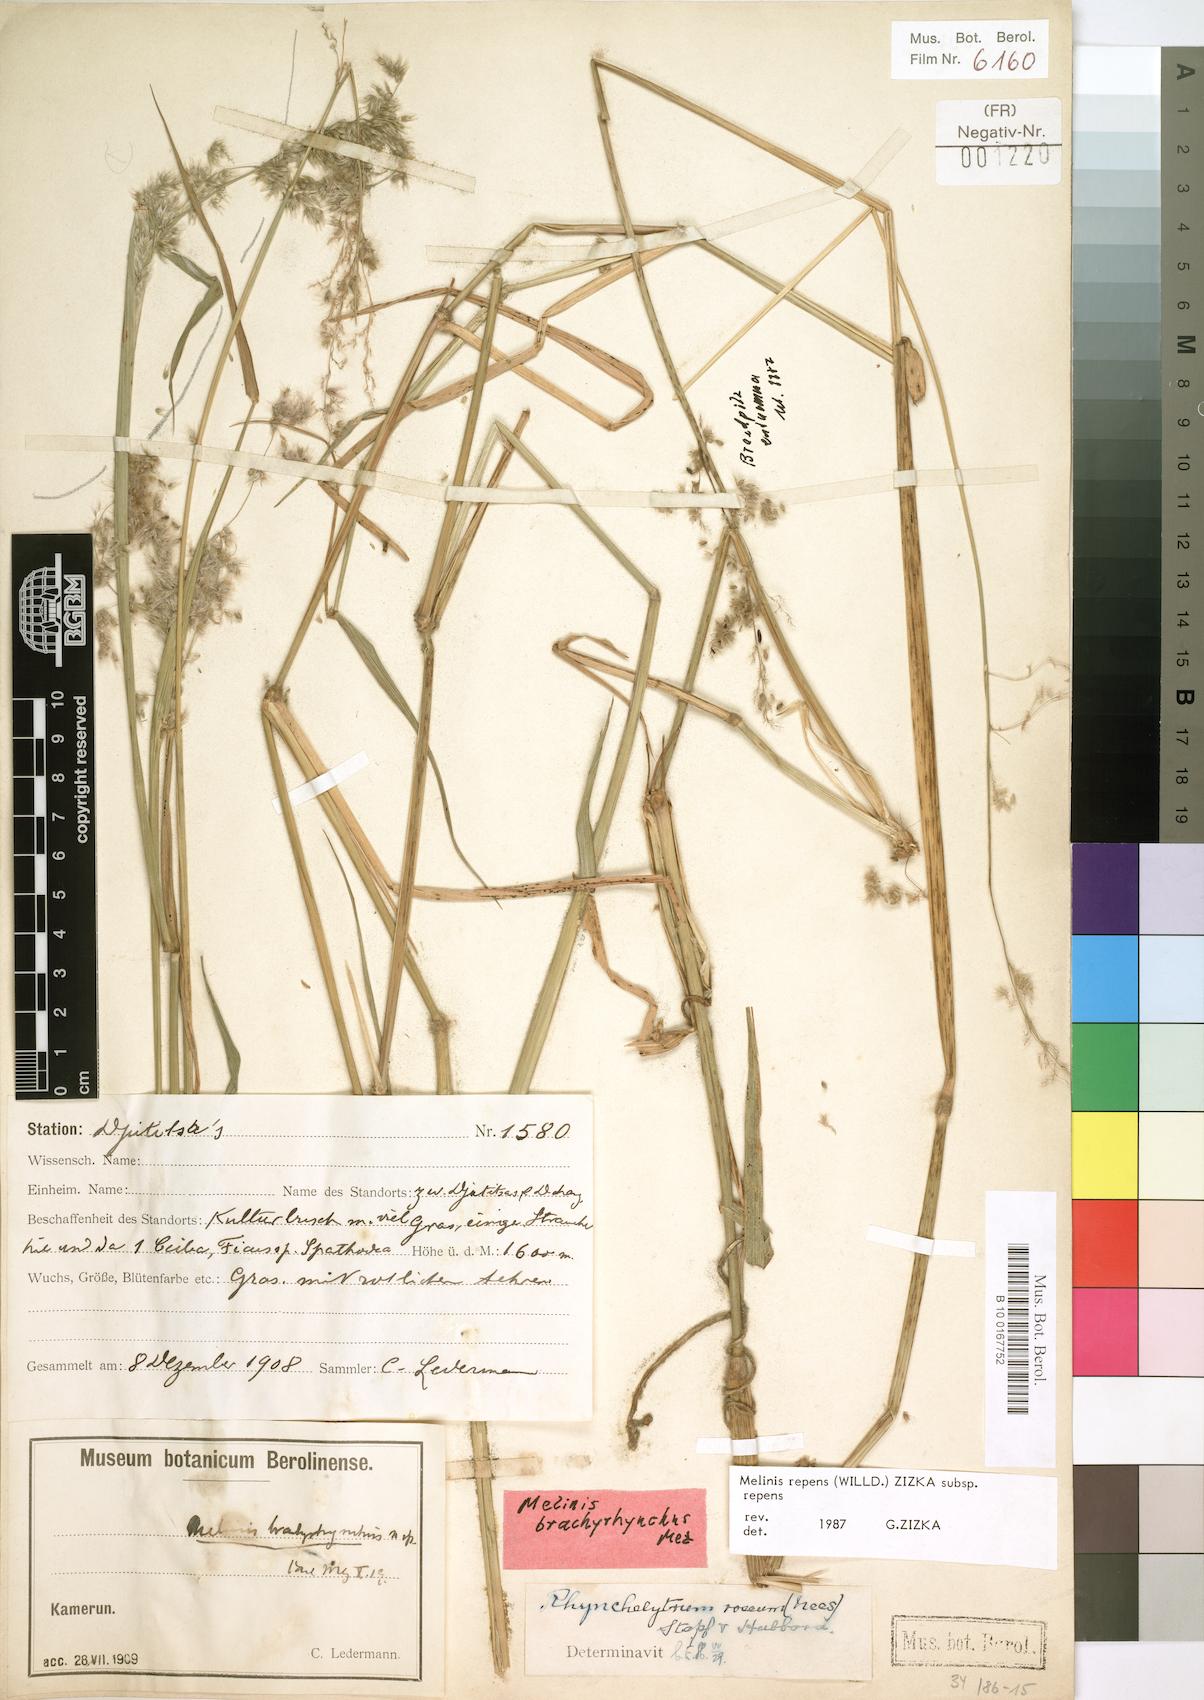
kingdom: Plantae
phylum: Tracheophyta
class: Liliopsida
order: Poales
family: Poaceae
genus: Melinis
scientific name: Melinis repens
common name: Rose natal grass
